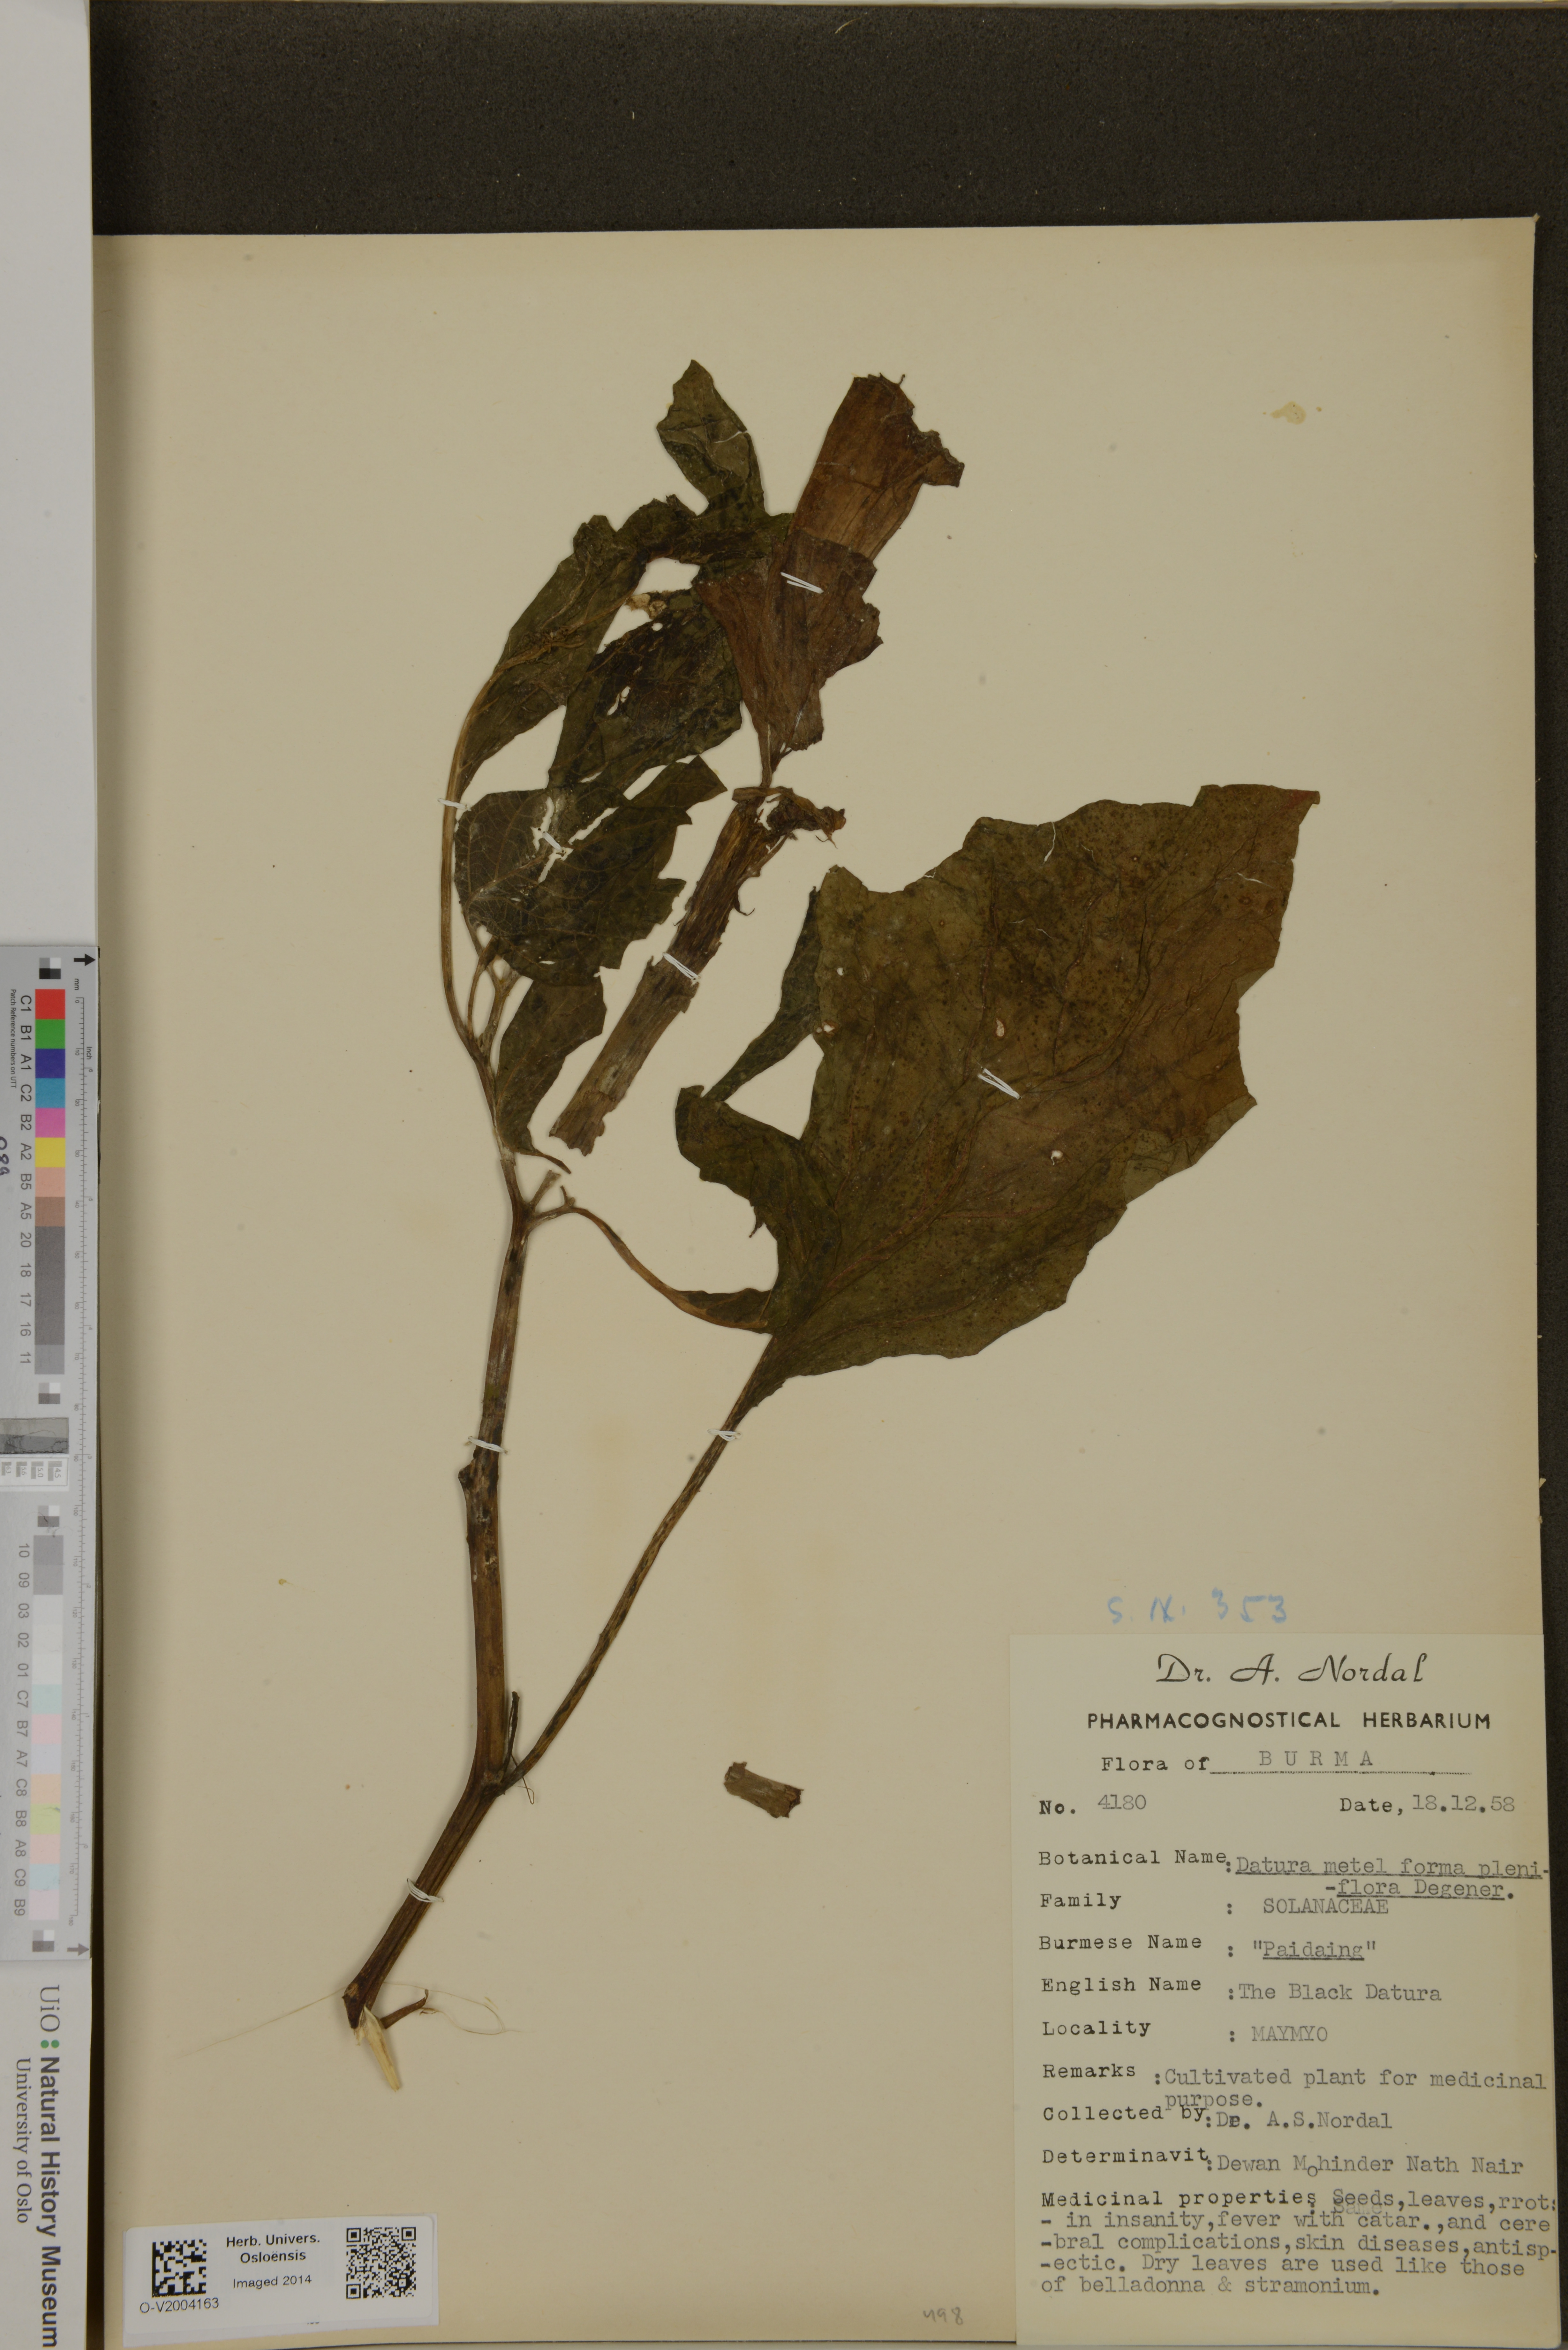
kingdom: Plantae
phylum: Tracheophyta
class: Magnoliopsida
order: Solanales
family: Solanaceae
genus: Datura
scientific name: Datura metel
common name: Jimsonweed
